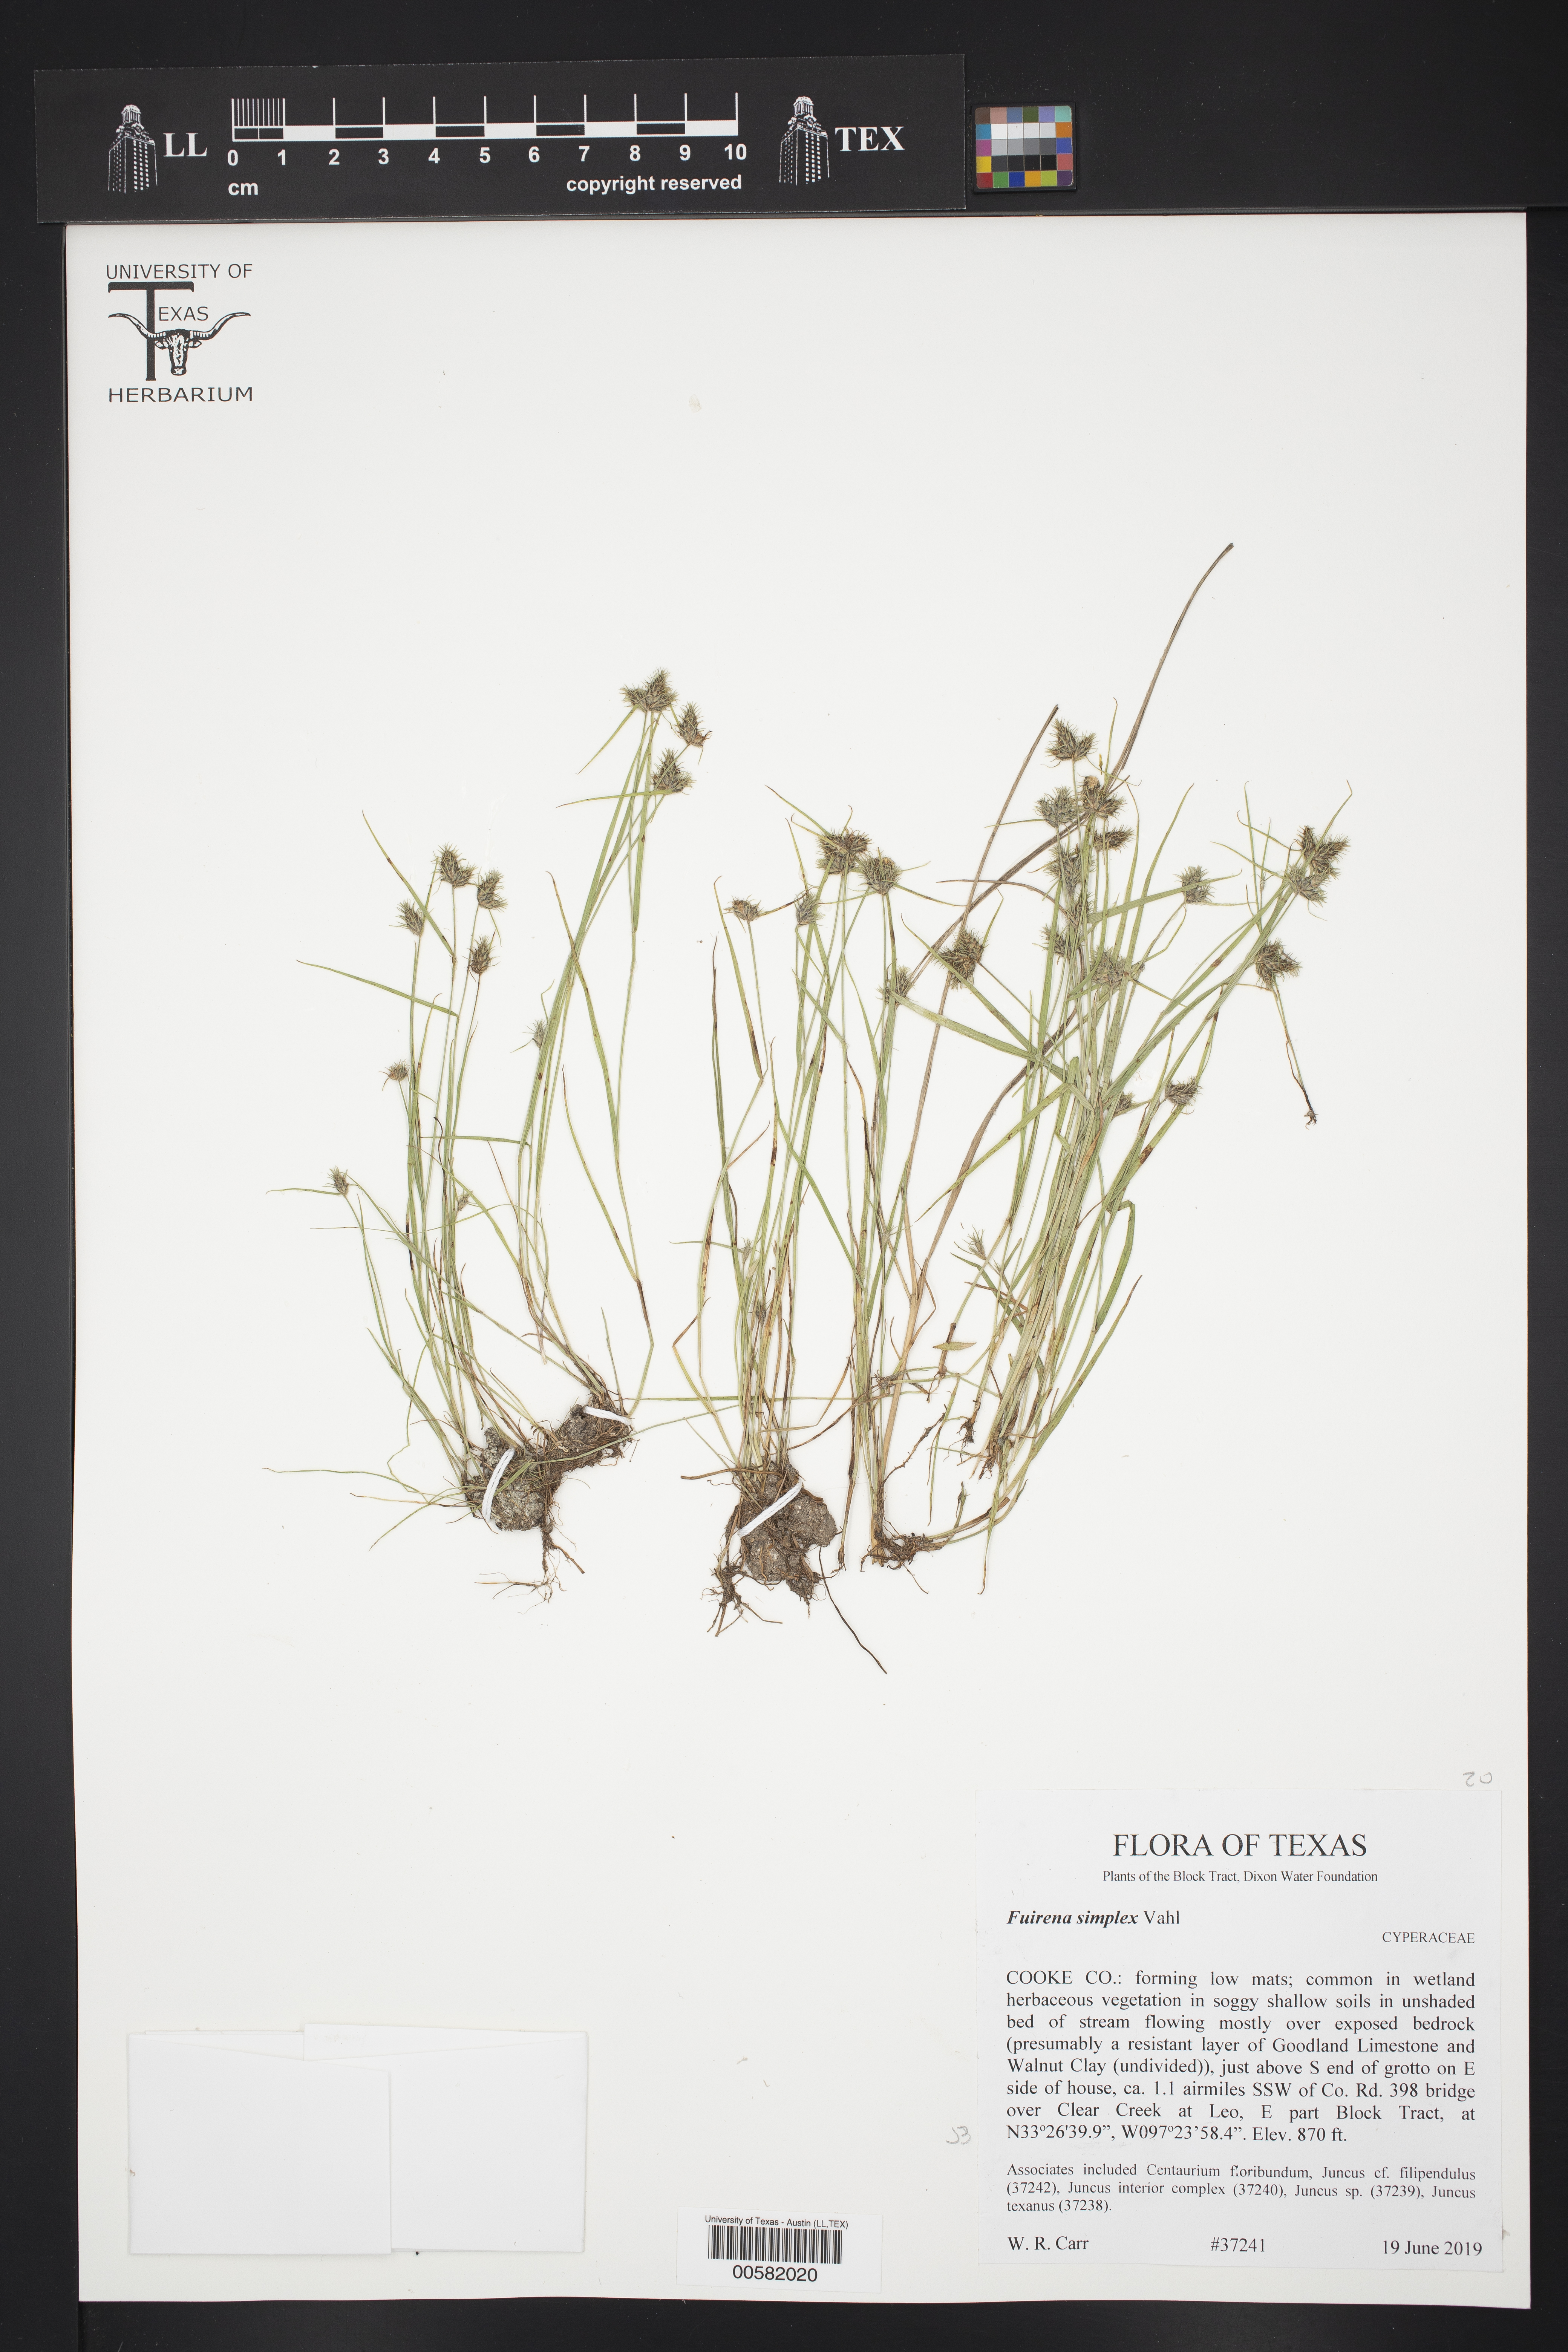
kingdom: Plantae
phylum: Tracheophyta
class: Liliopsida
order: Poales
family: Cyperaceae
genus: Fuirena
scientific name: Fuirena simplex
